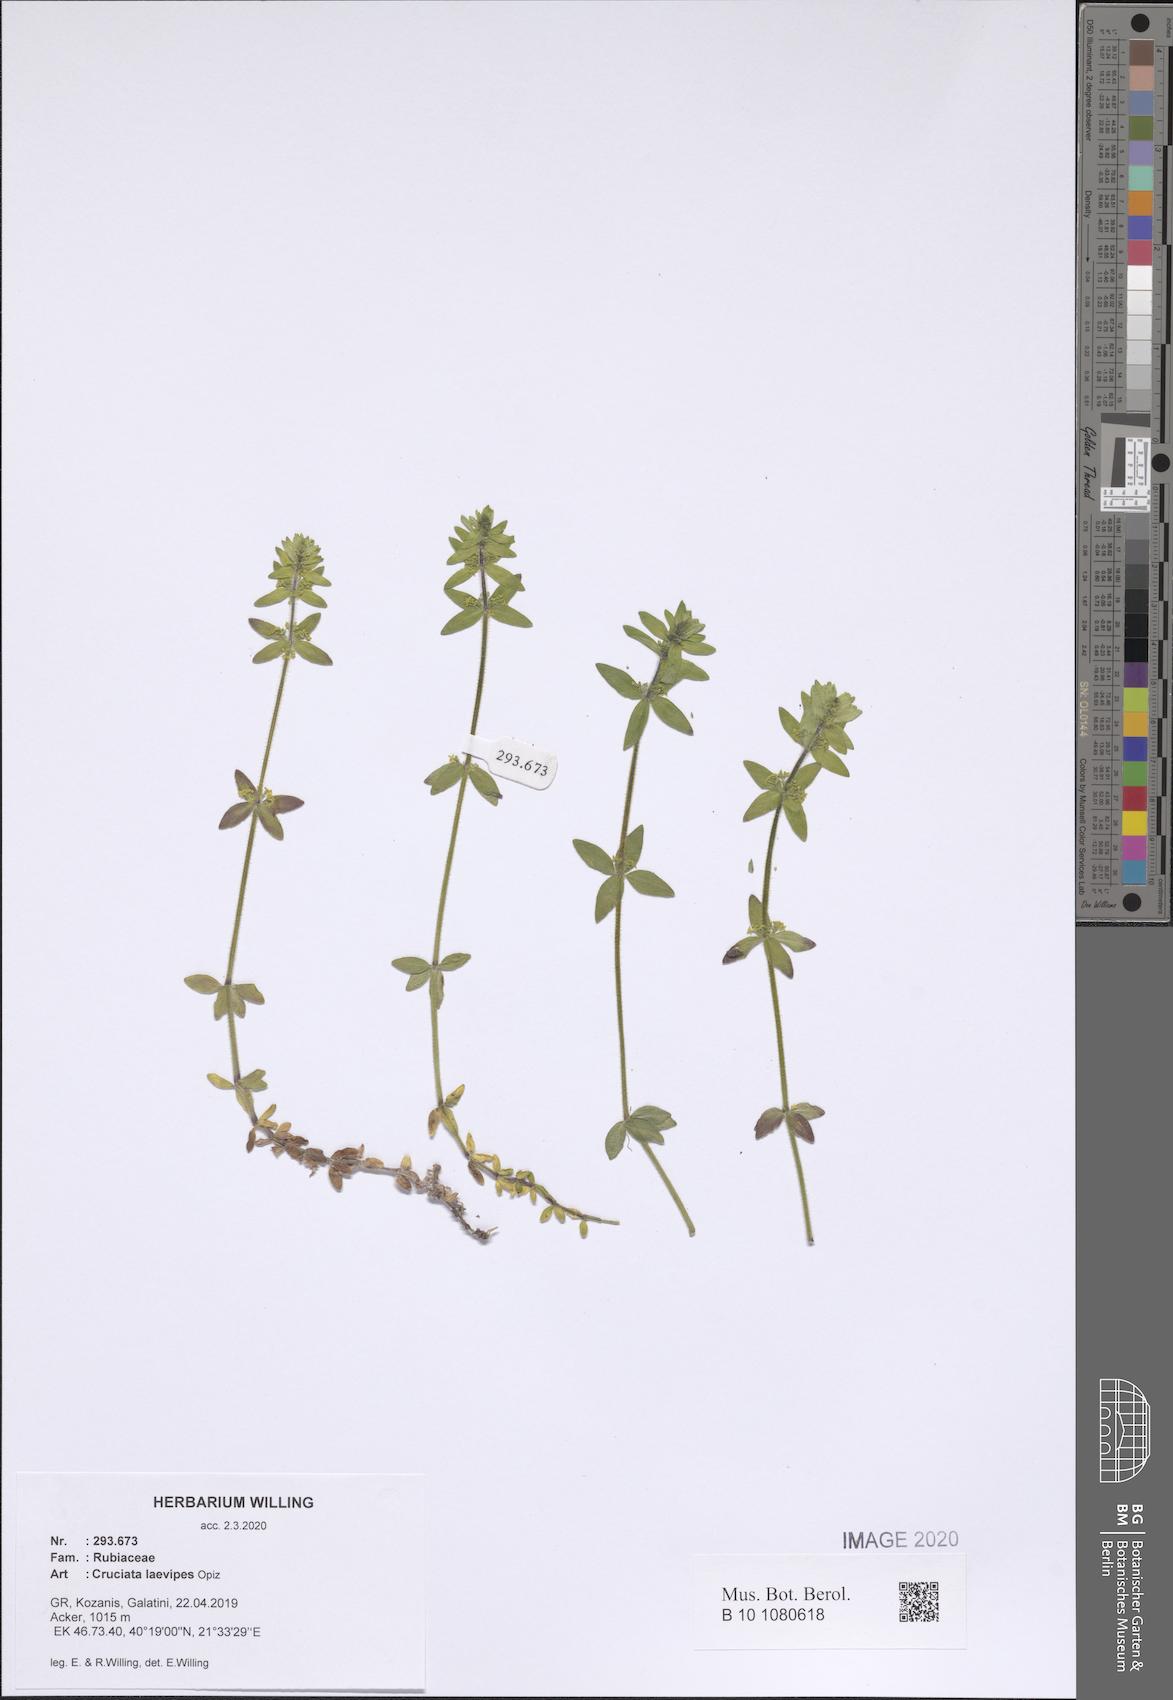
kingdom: Plantae
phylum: Tracheophyta
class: Magnoliopsida
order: Gentianales
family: Rubiaceae
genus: Cruciata
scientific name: Cruciata laevipes
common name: Crosswort
